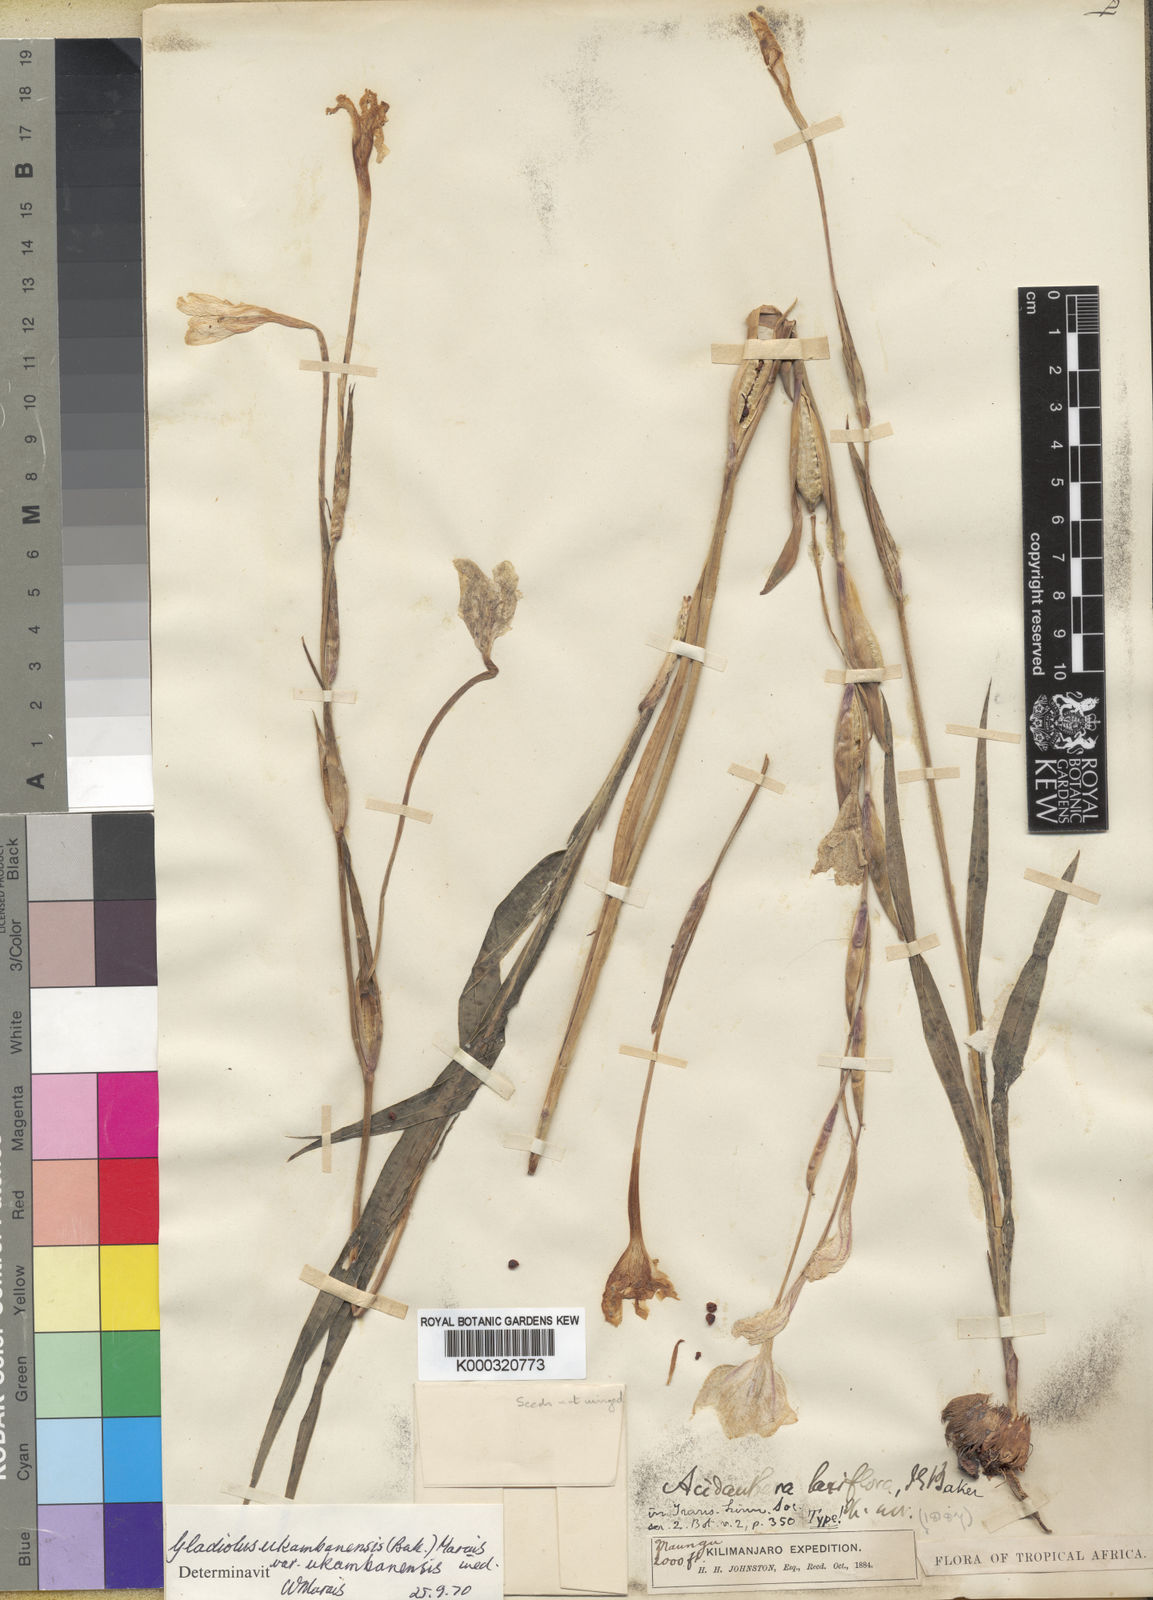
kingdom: Plantae
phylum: Tracheophyta
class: Liliopsida
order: Asparagales
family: Iridaceae
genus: Gladiolus
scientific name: Gladiolus candidus
